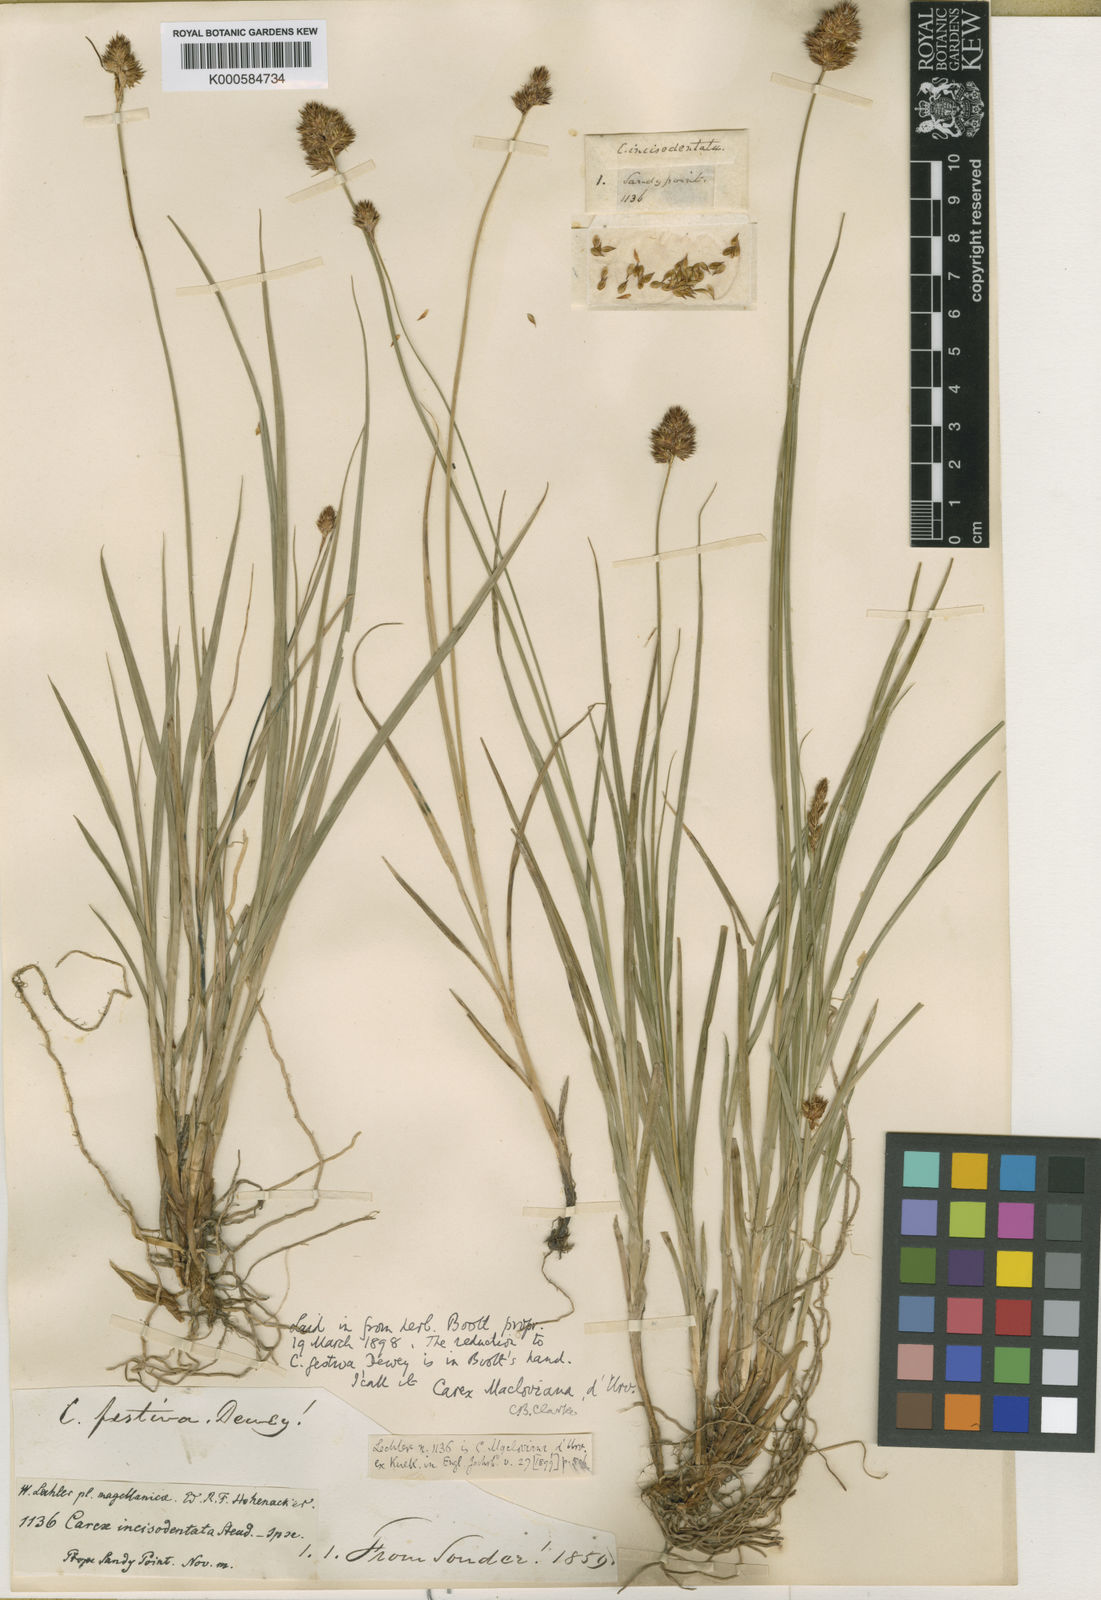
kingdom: Plantae
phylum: Tracheophyta
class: Liliopsida
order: Poales
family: Cyperaceae
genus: Carex
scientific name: Carex macloviana
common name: Falkland island sedge
